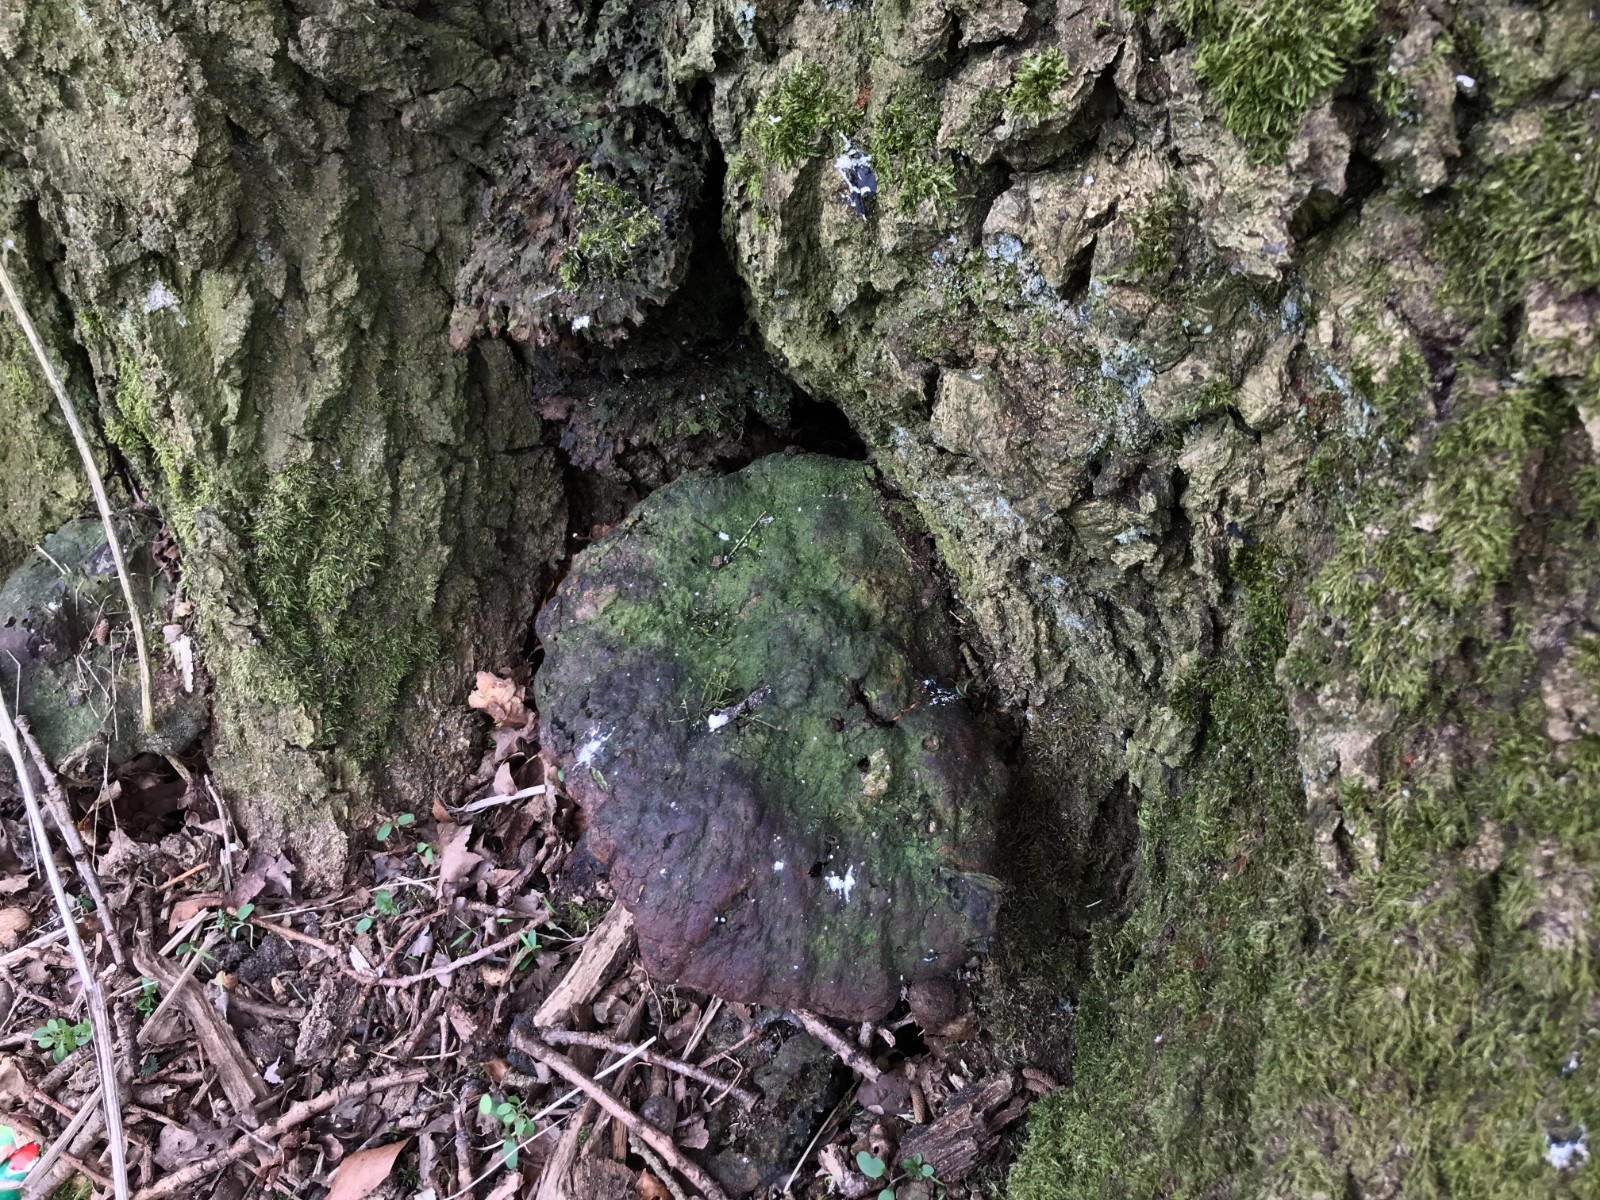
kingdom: Fungi
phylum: Basidiomycota
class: Agaricomycetes
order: Polyporales
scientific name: Polyporales
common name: poresvampordenen
